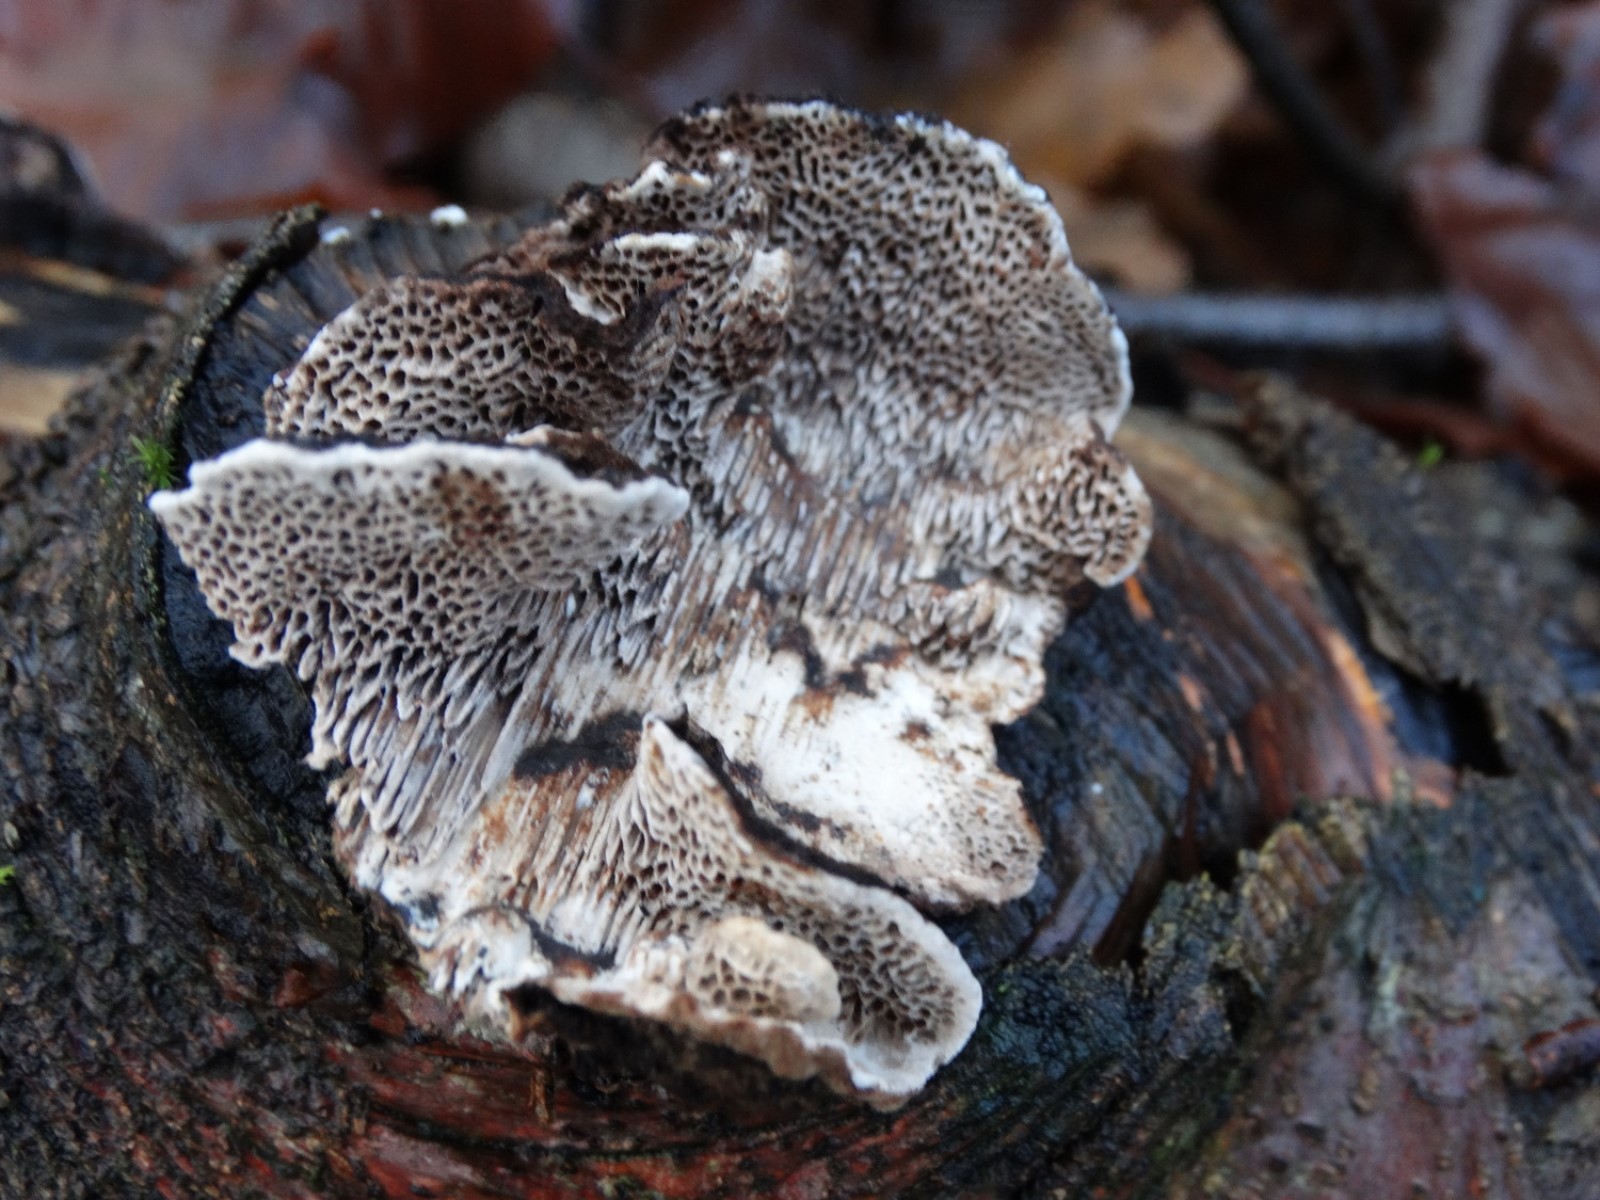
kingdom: Fungi
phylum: Basidiomycota
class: Agaricomycetes
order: Polyporales
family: Polyporaceae
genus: Podofomes
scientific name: Podofomes mollis
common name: blød begporesvamp
